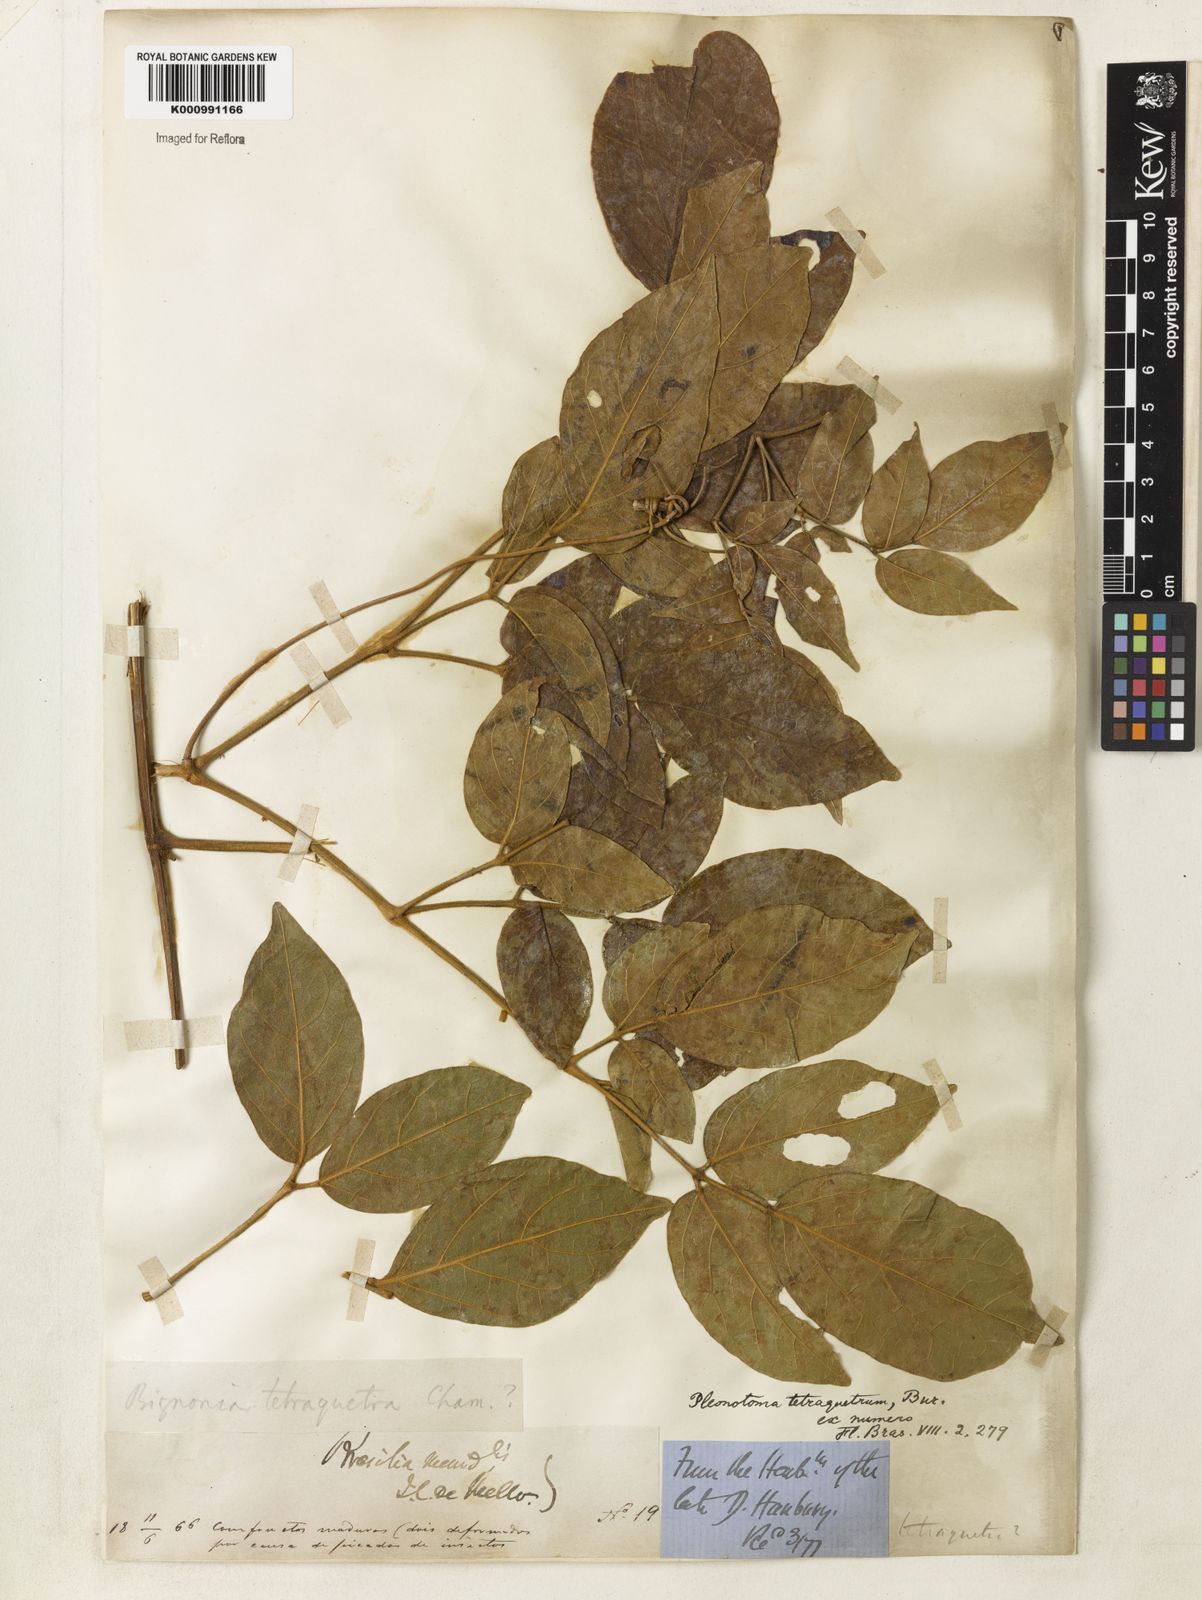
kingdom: Plantae
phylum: Tracheophyta
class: Magnoliopsida
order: Lamiales
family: Bignoniaceae
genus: Pleonotoma
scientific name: Pleonotoma tetraquetra
